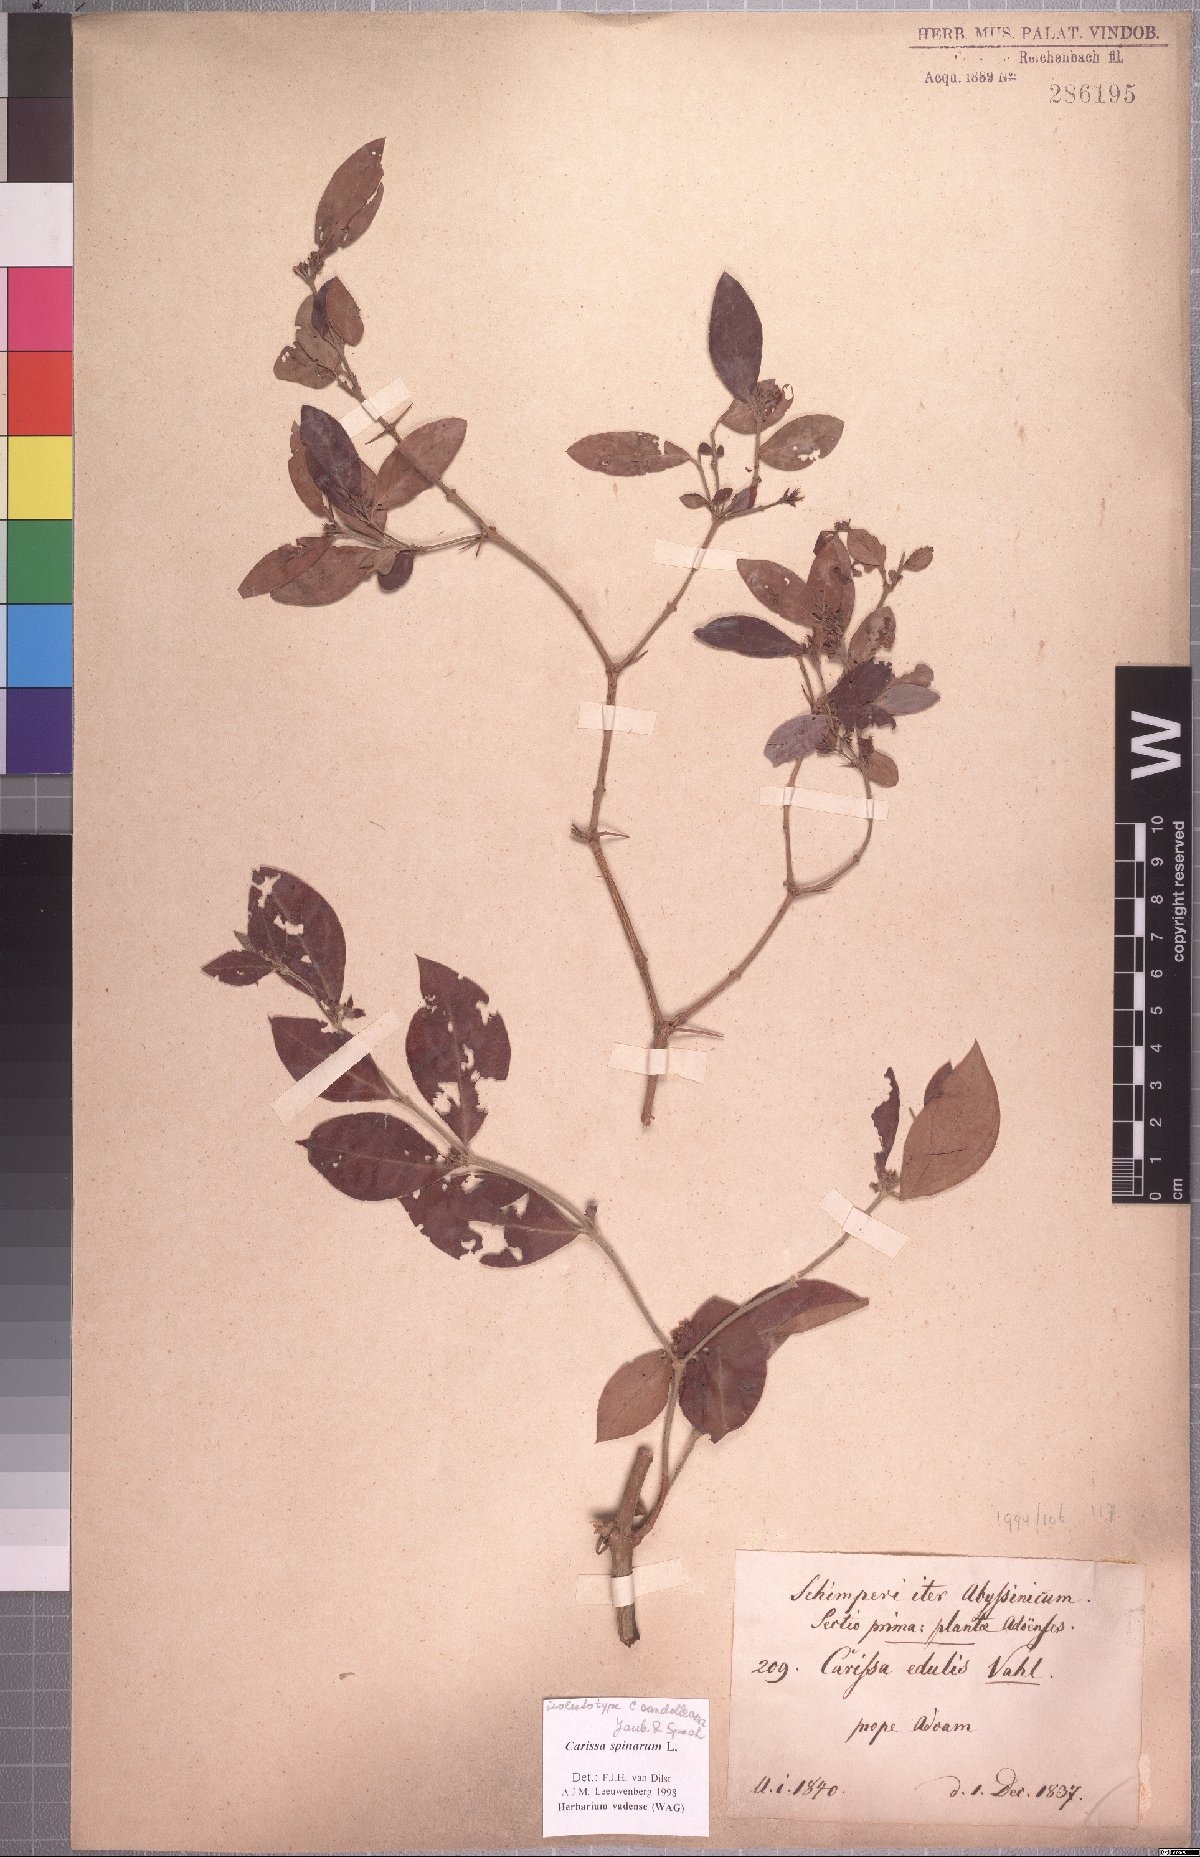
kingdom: Plantae
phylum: Tracheophyta
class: Magnoliopsida
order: Gentianales
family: Apocynaceae
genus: Carissa
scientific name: Carissa spinarum
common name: Egyptian carissa
